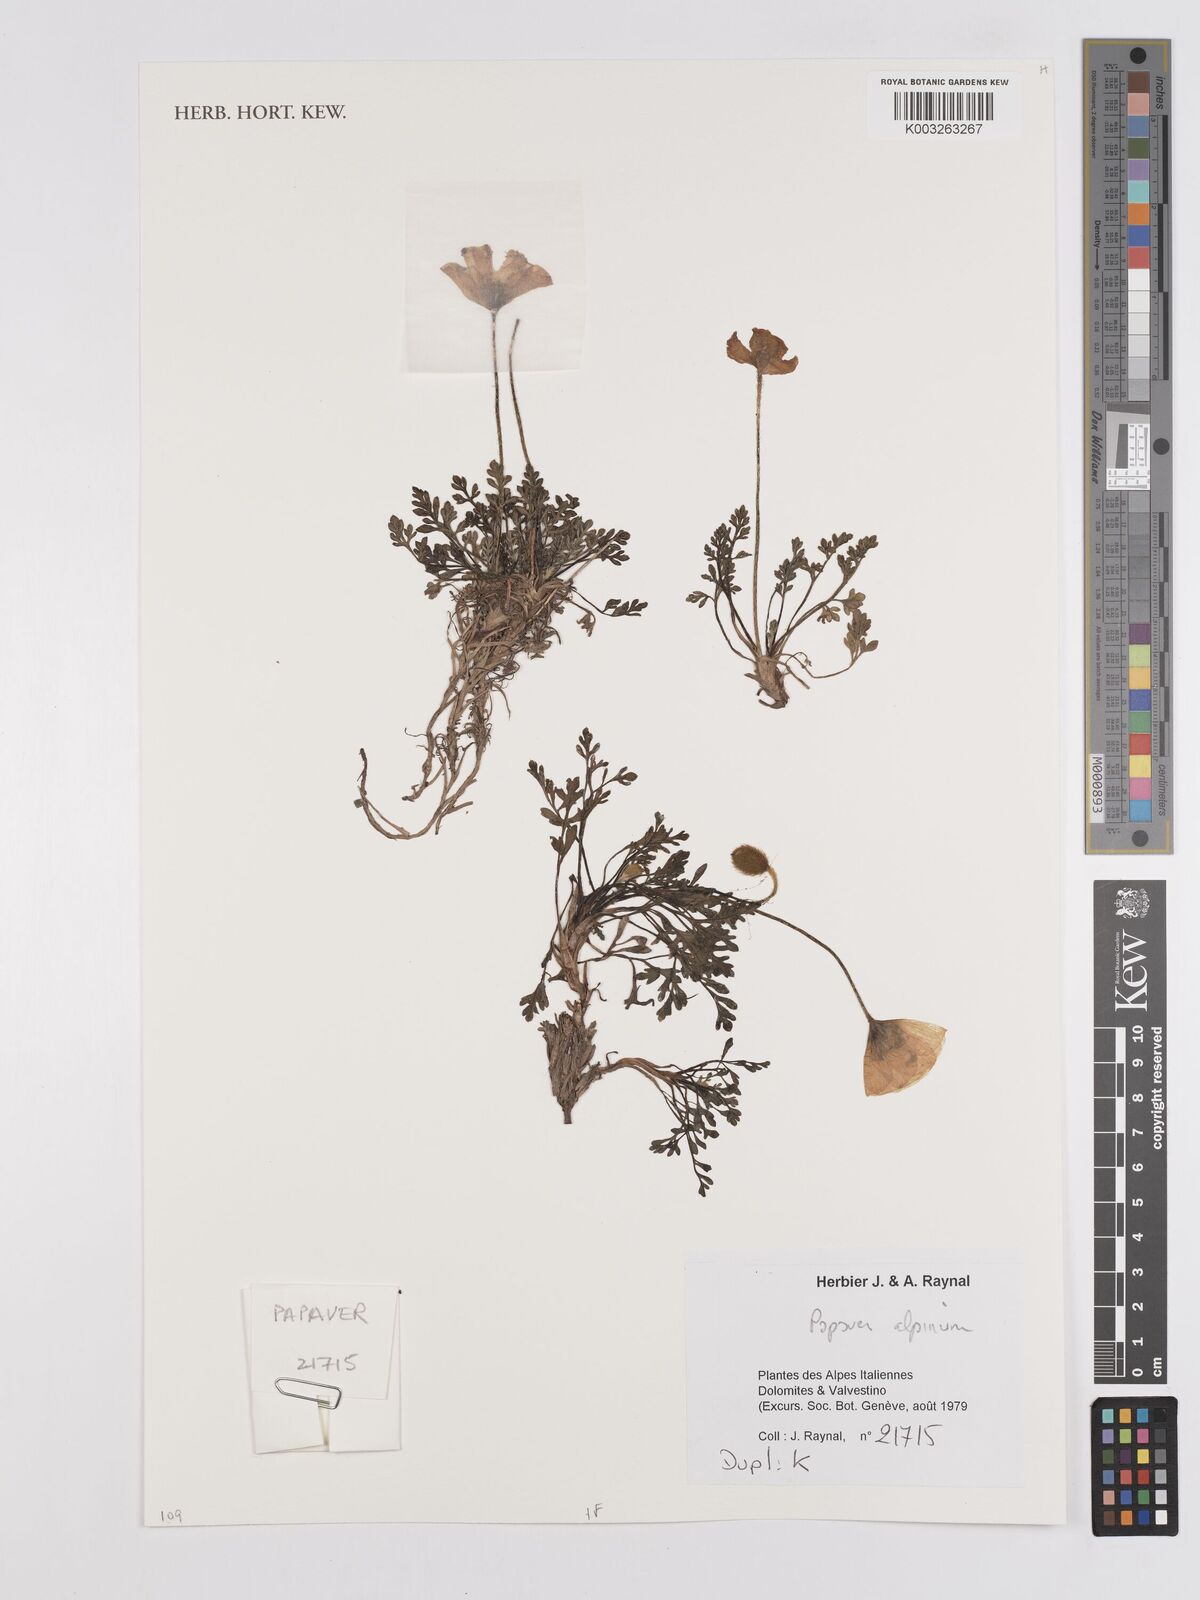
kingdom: Plantae
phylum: Tracheophyta
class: Magnoliopsida
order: Ranunculales
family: Papaveraceae
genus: Papaver
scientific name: Papaver alpinum
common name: Austrian poppy
